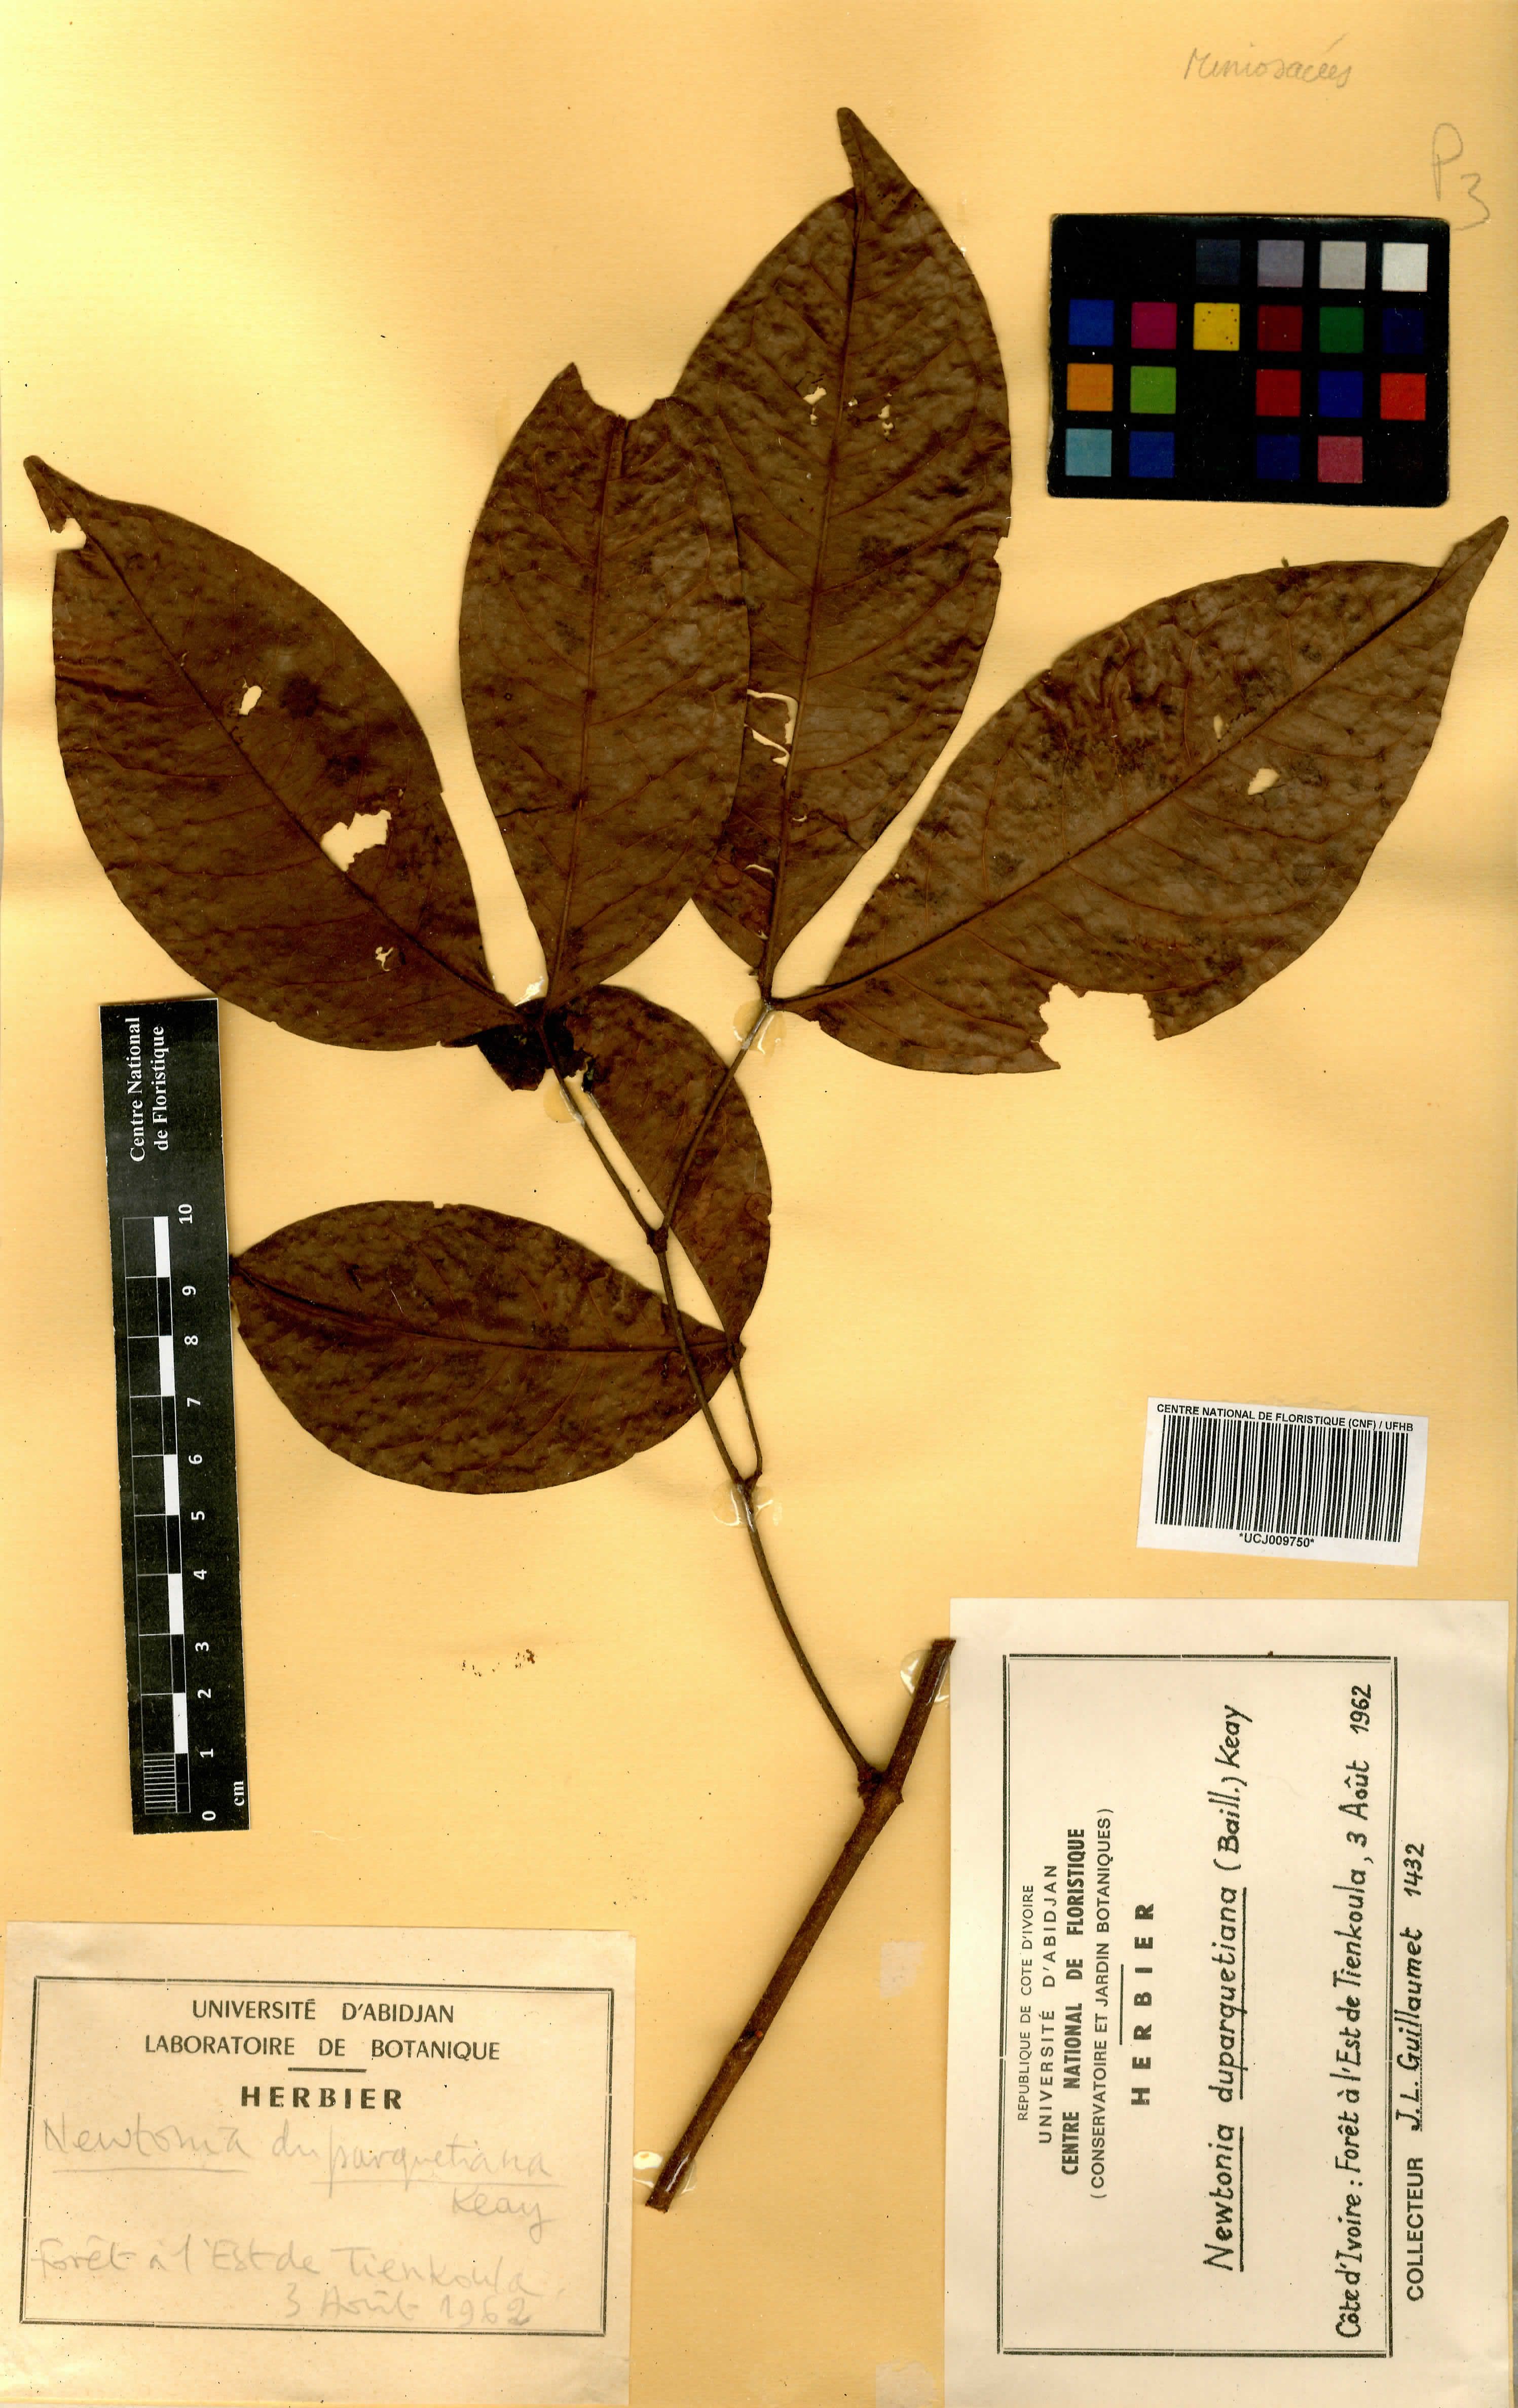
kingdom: Plantae
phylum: Tracheophyta
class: Magnoliopsida
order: Fabales
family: Fabaceae
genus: Newtonia
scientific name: Newtonia duparquetiana
